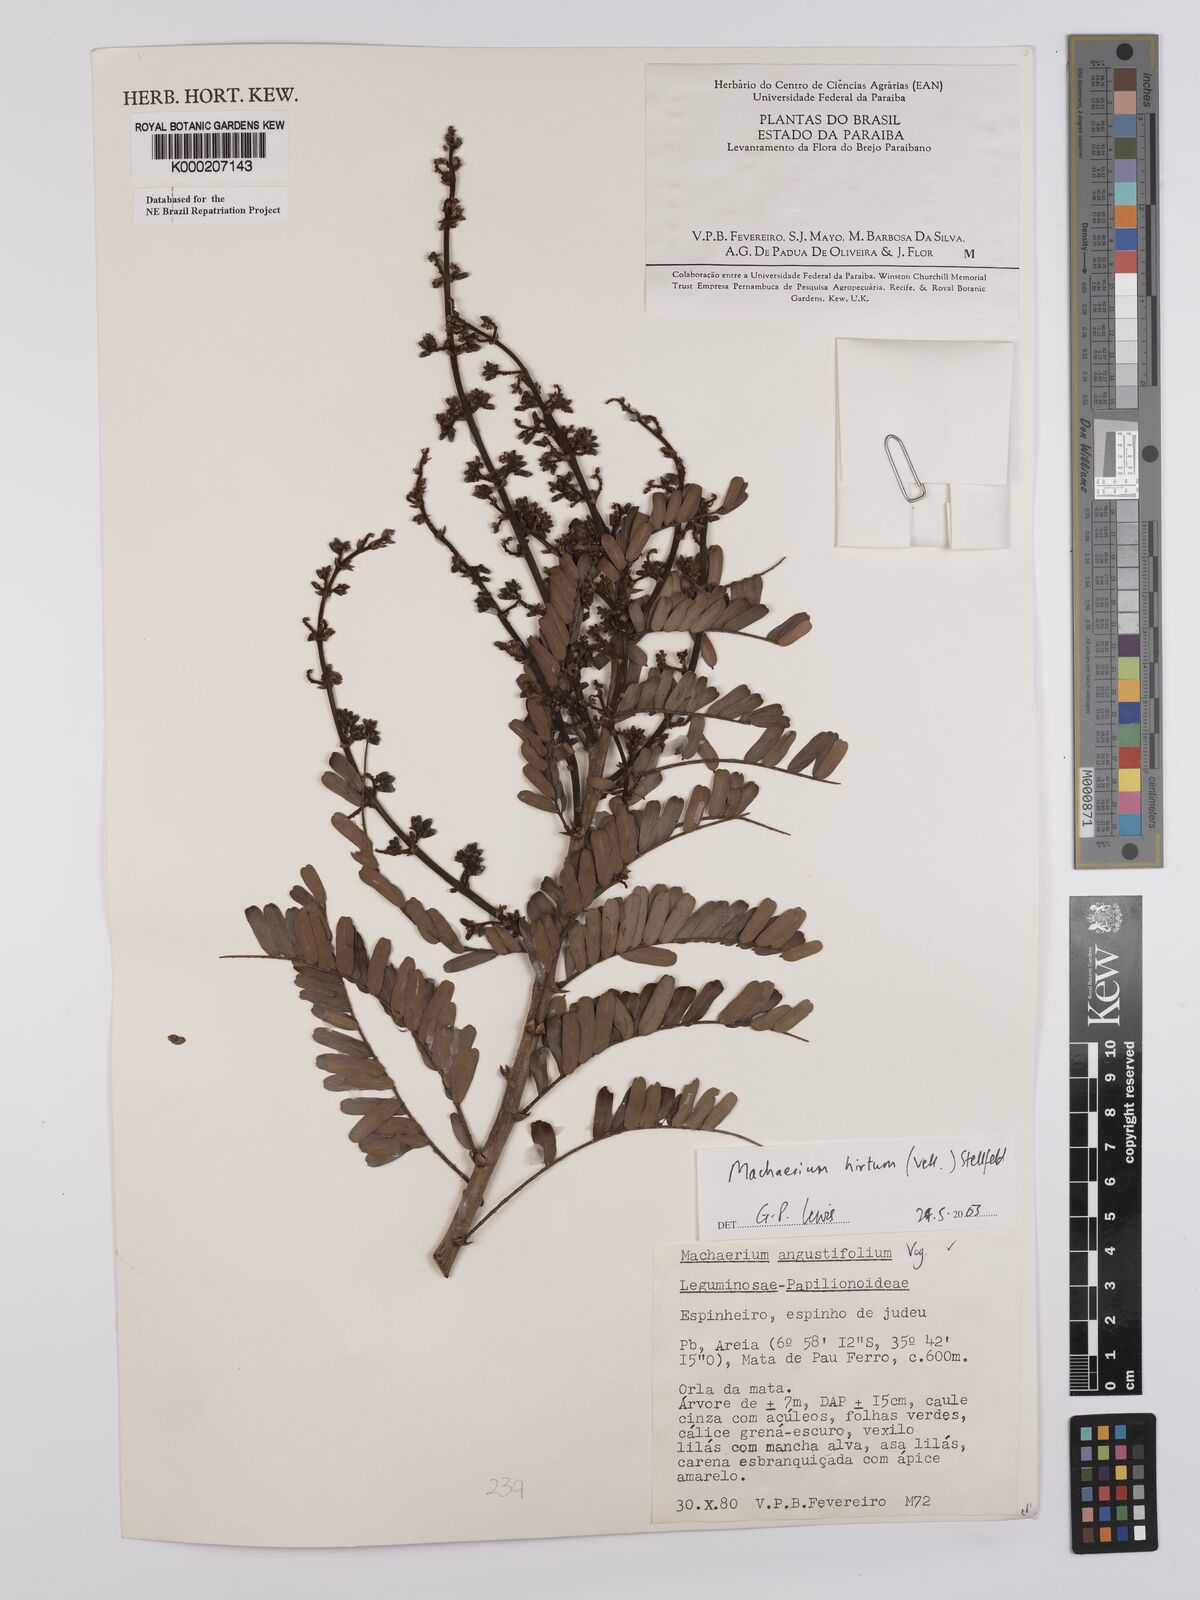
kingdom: Plantae
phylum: Tracheophyta
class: Magnoliopsida
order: Fabales
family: Fabaceae
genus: Machaerium
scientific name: Machaerium hirtum
